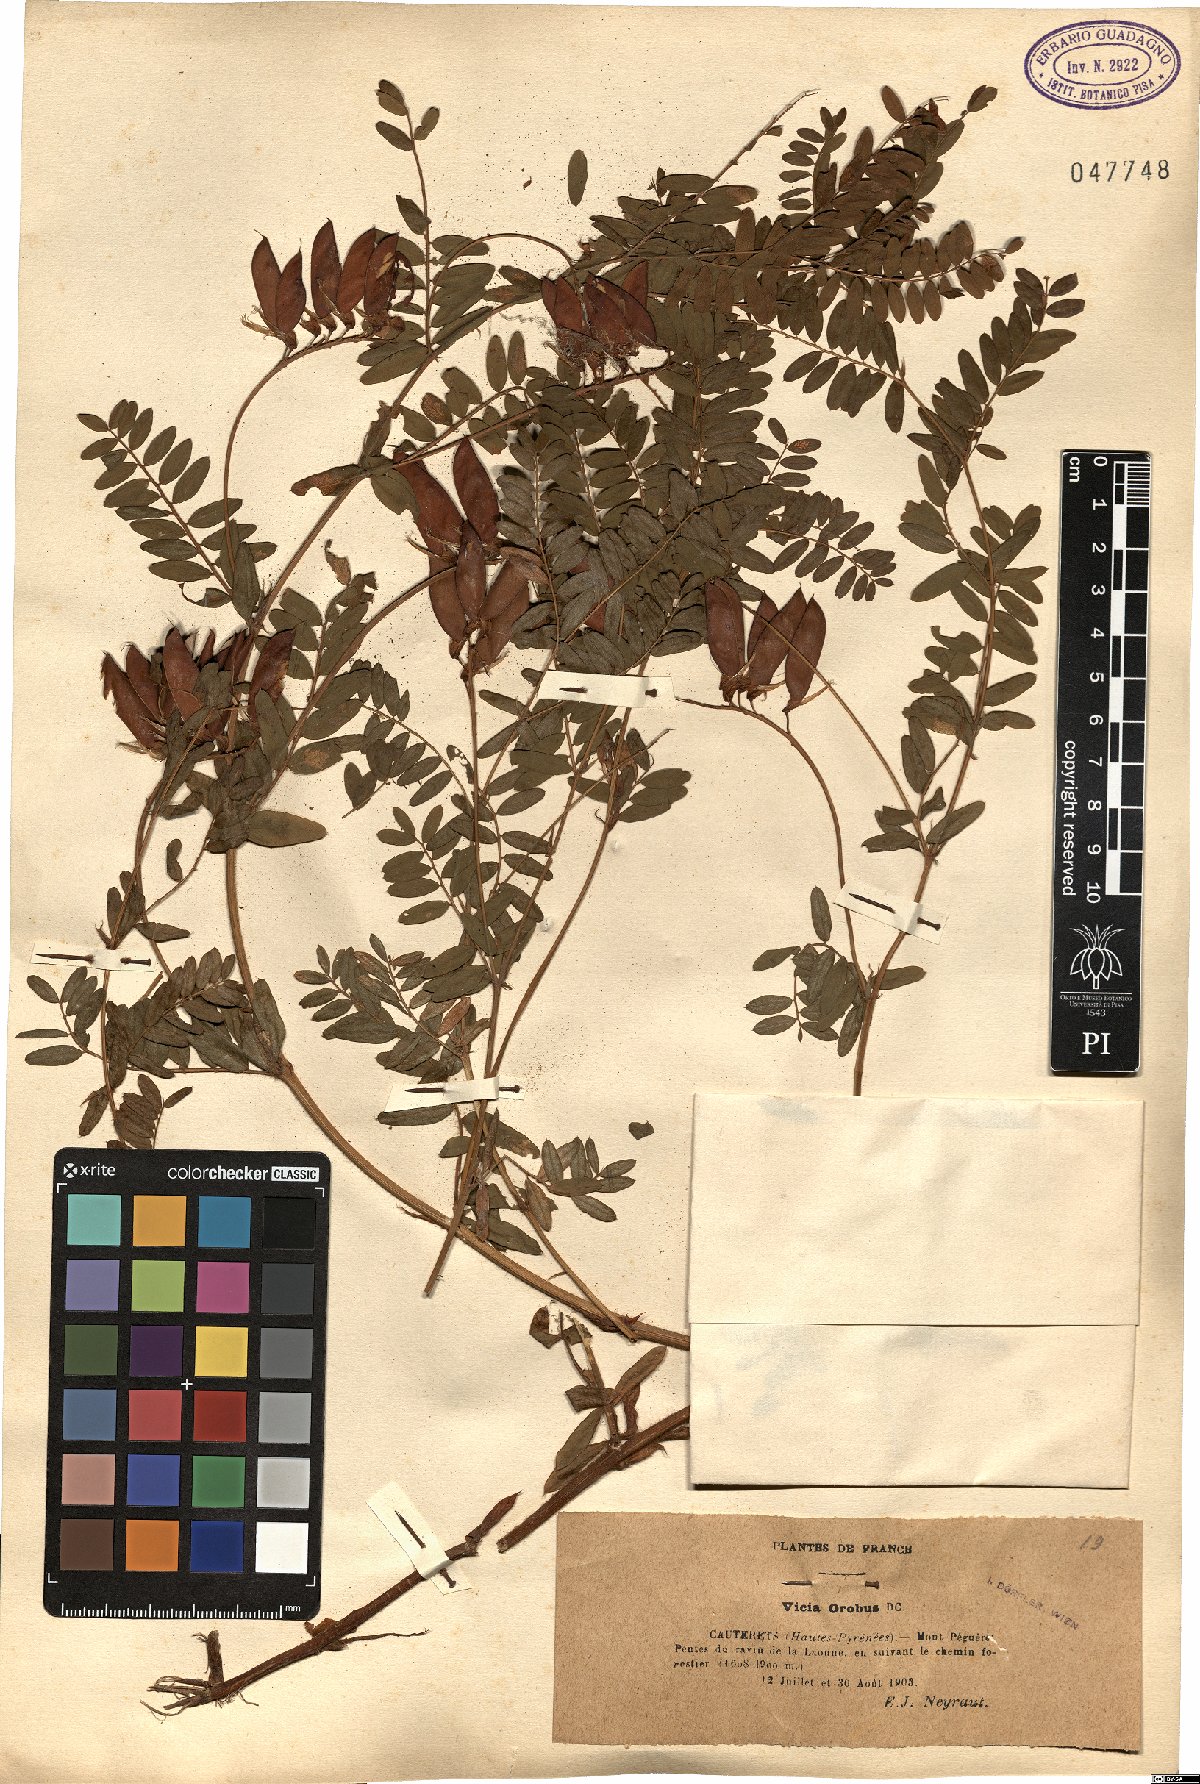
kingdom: Plantae
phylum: Tracheophyta
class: Magnoliopsida
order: Fabales
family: Fabaceae
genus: Vicia
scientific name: Vicia orobus
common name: Wood bitter-vetch
